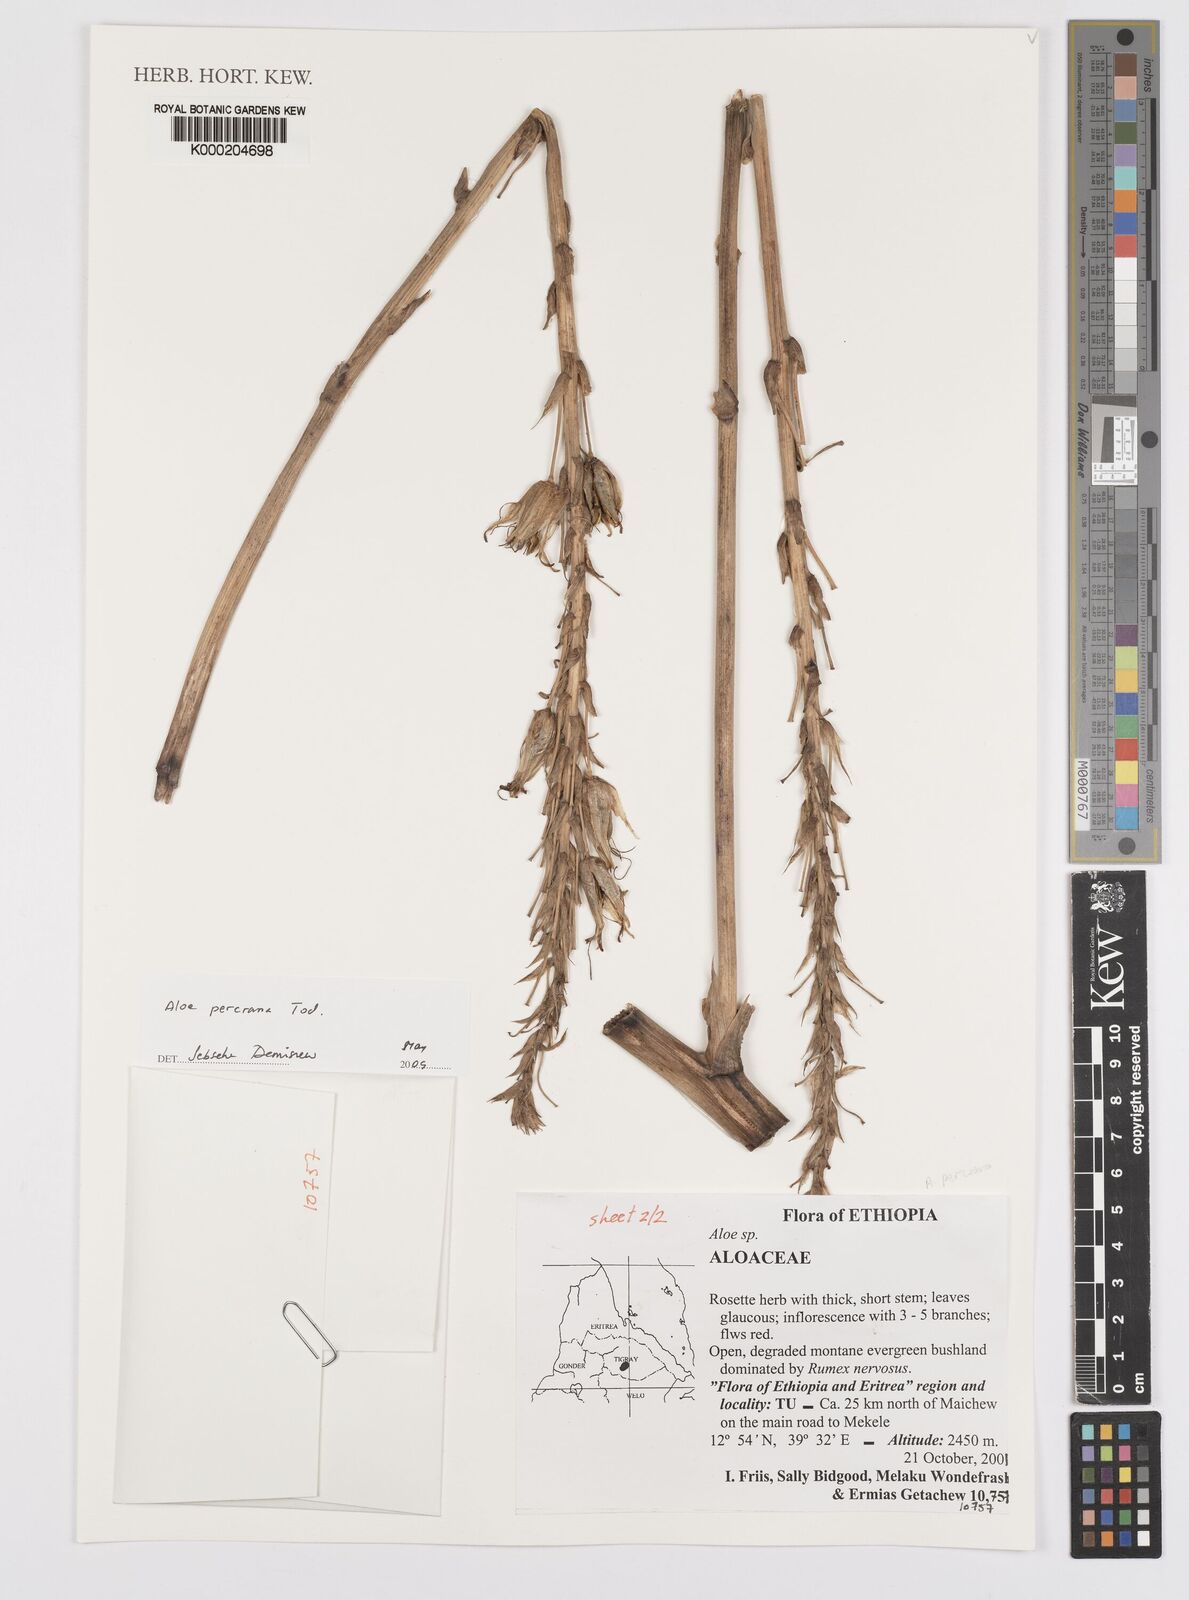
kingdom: Plantae
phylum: Tracheophyta
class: Liliopsida
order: Asparagales
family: Asphodelaceae
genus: Aloe
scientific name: Aloe percrassa
